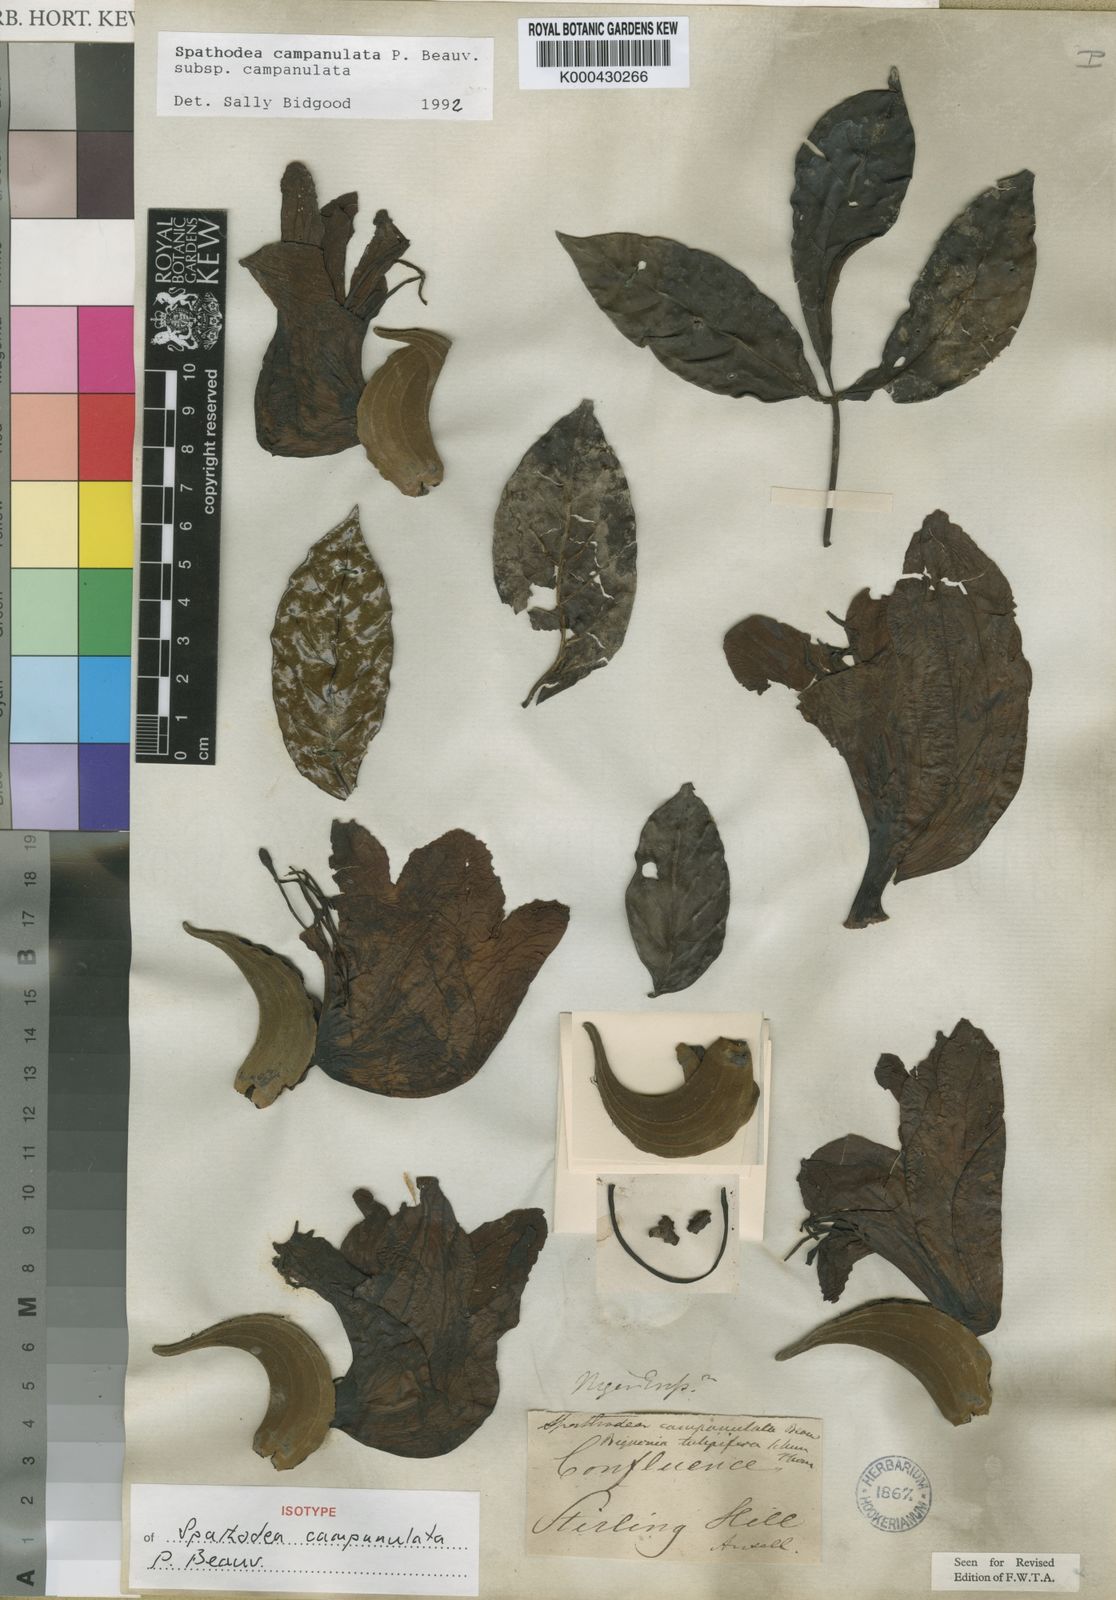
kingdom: Plantae
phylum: Tracheophyta
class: Magnoliopsida
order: Lamiales
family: Bignoniaceae
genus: Spathodea
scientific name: Spathodea campanulata
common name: African tuliptree
